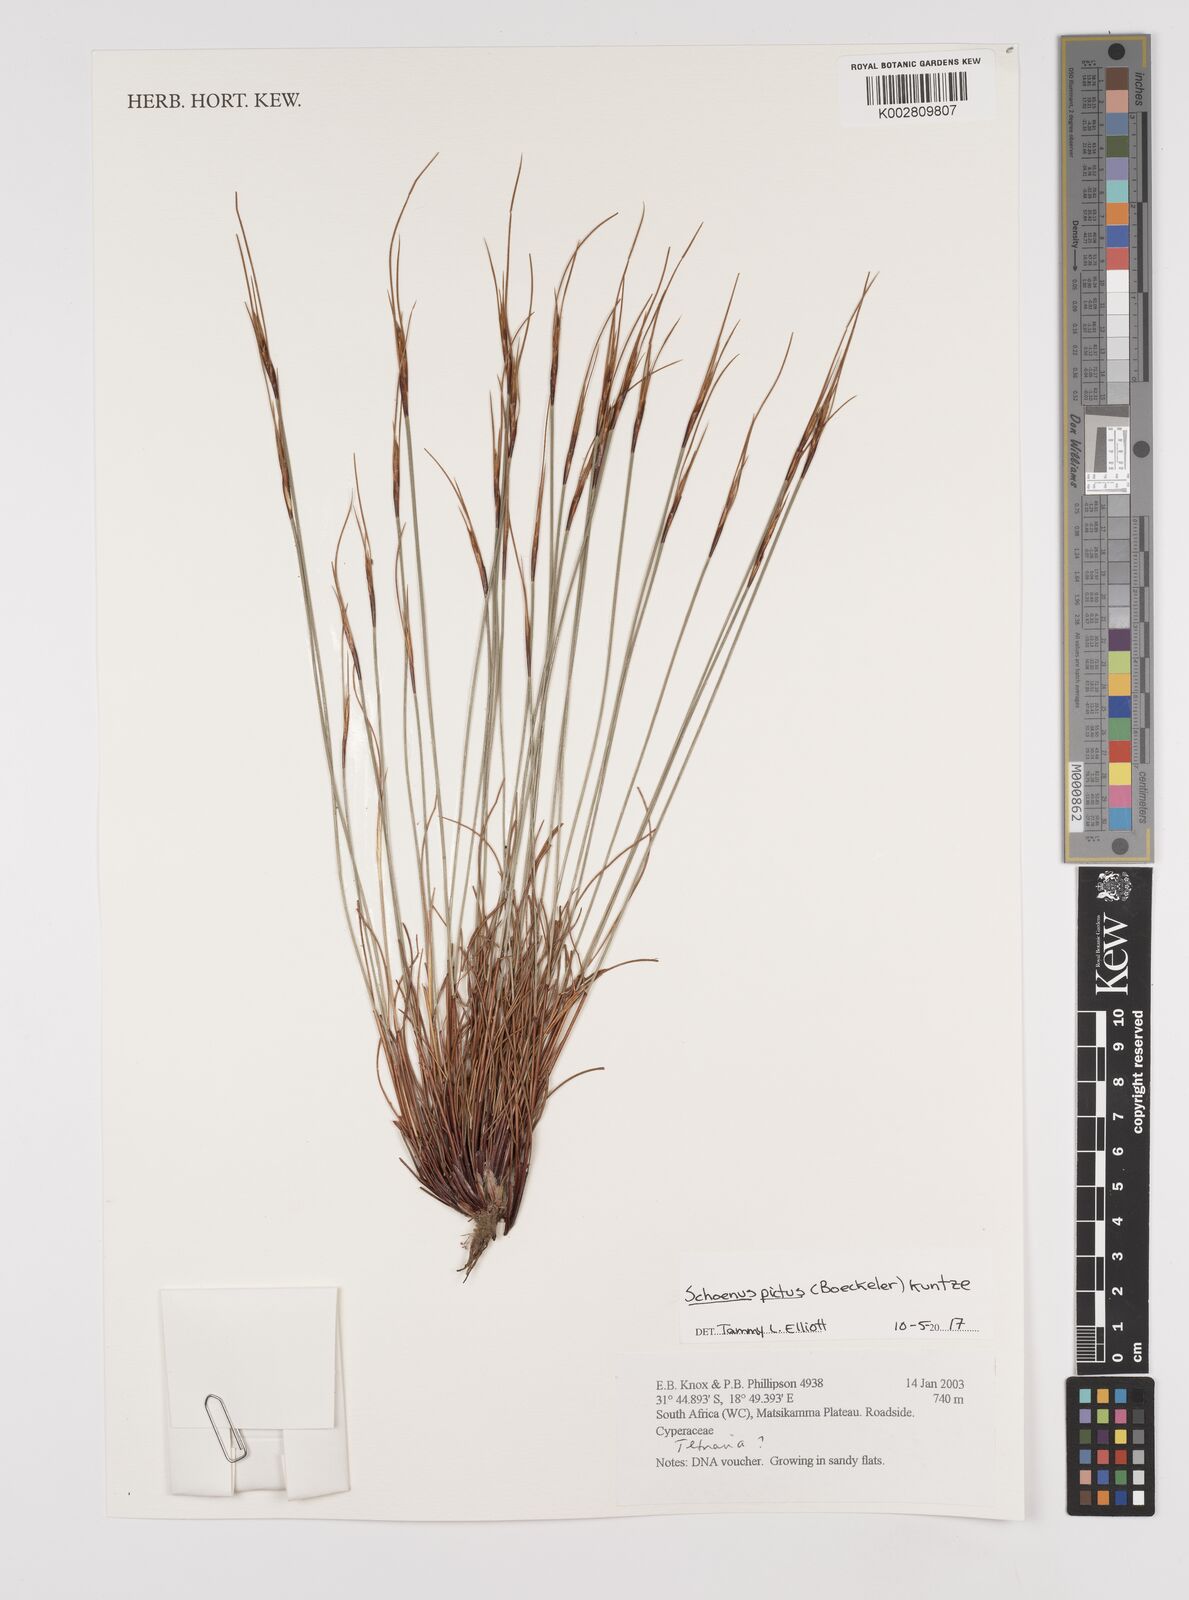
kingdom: Plantae
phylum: Tracheophyta
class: Liliopsida
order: Poales
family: Cyperaceae
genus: Schoenus
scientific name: Schoenus pictus
